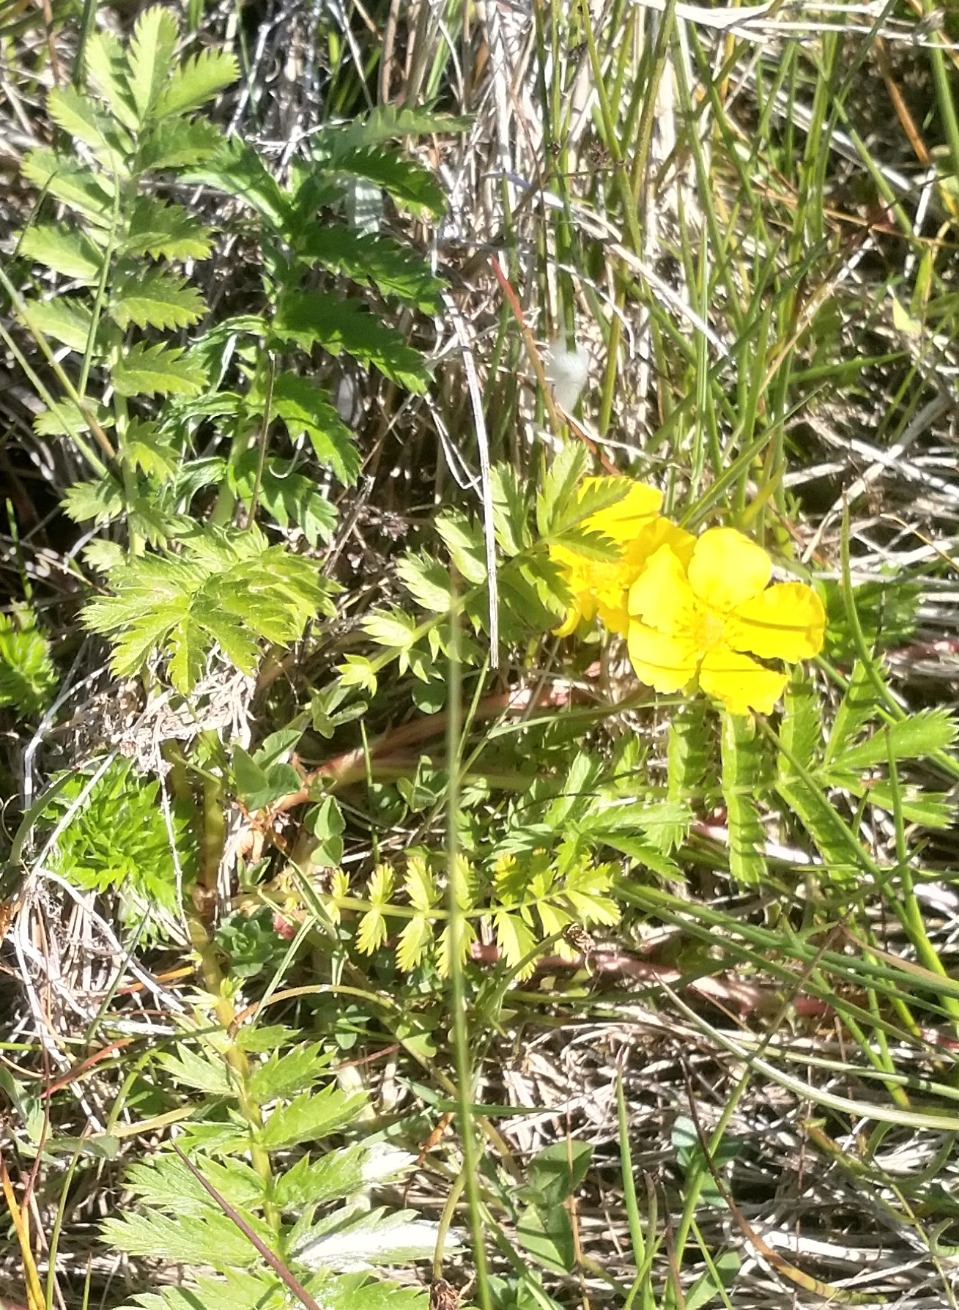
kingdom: Plantae
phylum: Tracheophyta
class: Magnoliopsida
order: Rosales
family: Rosaceae
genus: Argentina
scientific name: Argentina anserina
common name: Gåsepotentil
